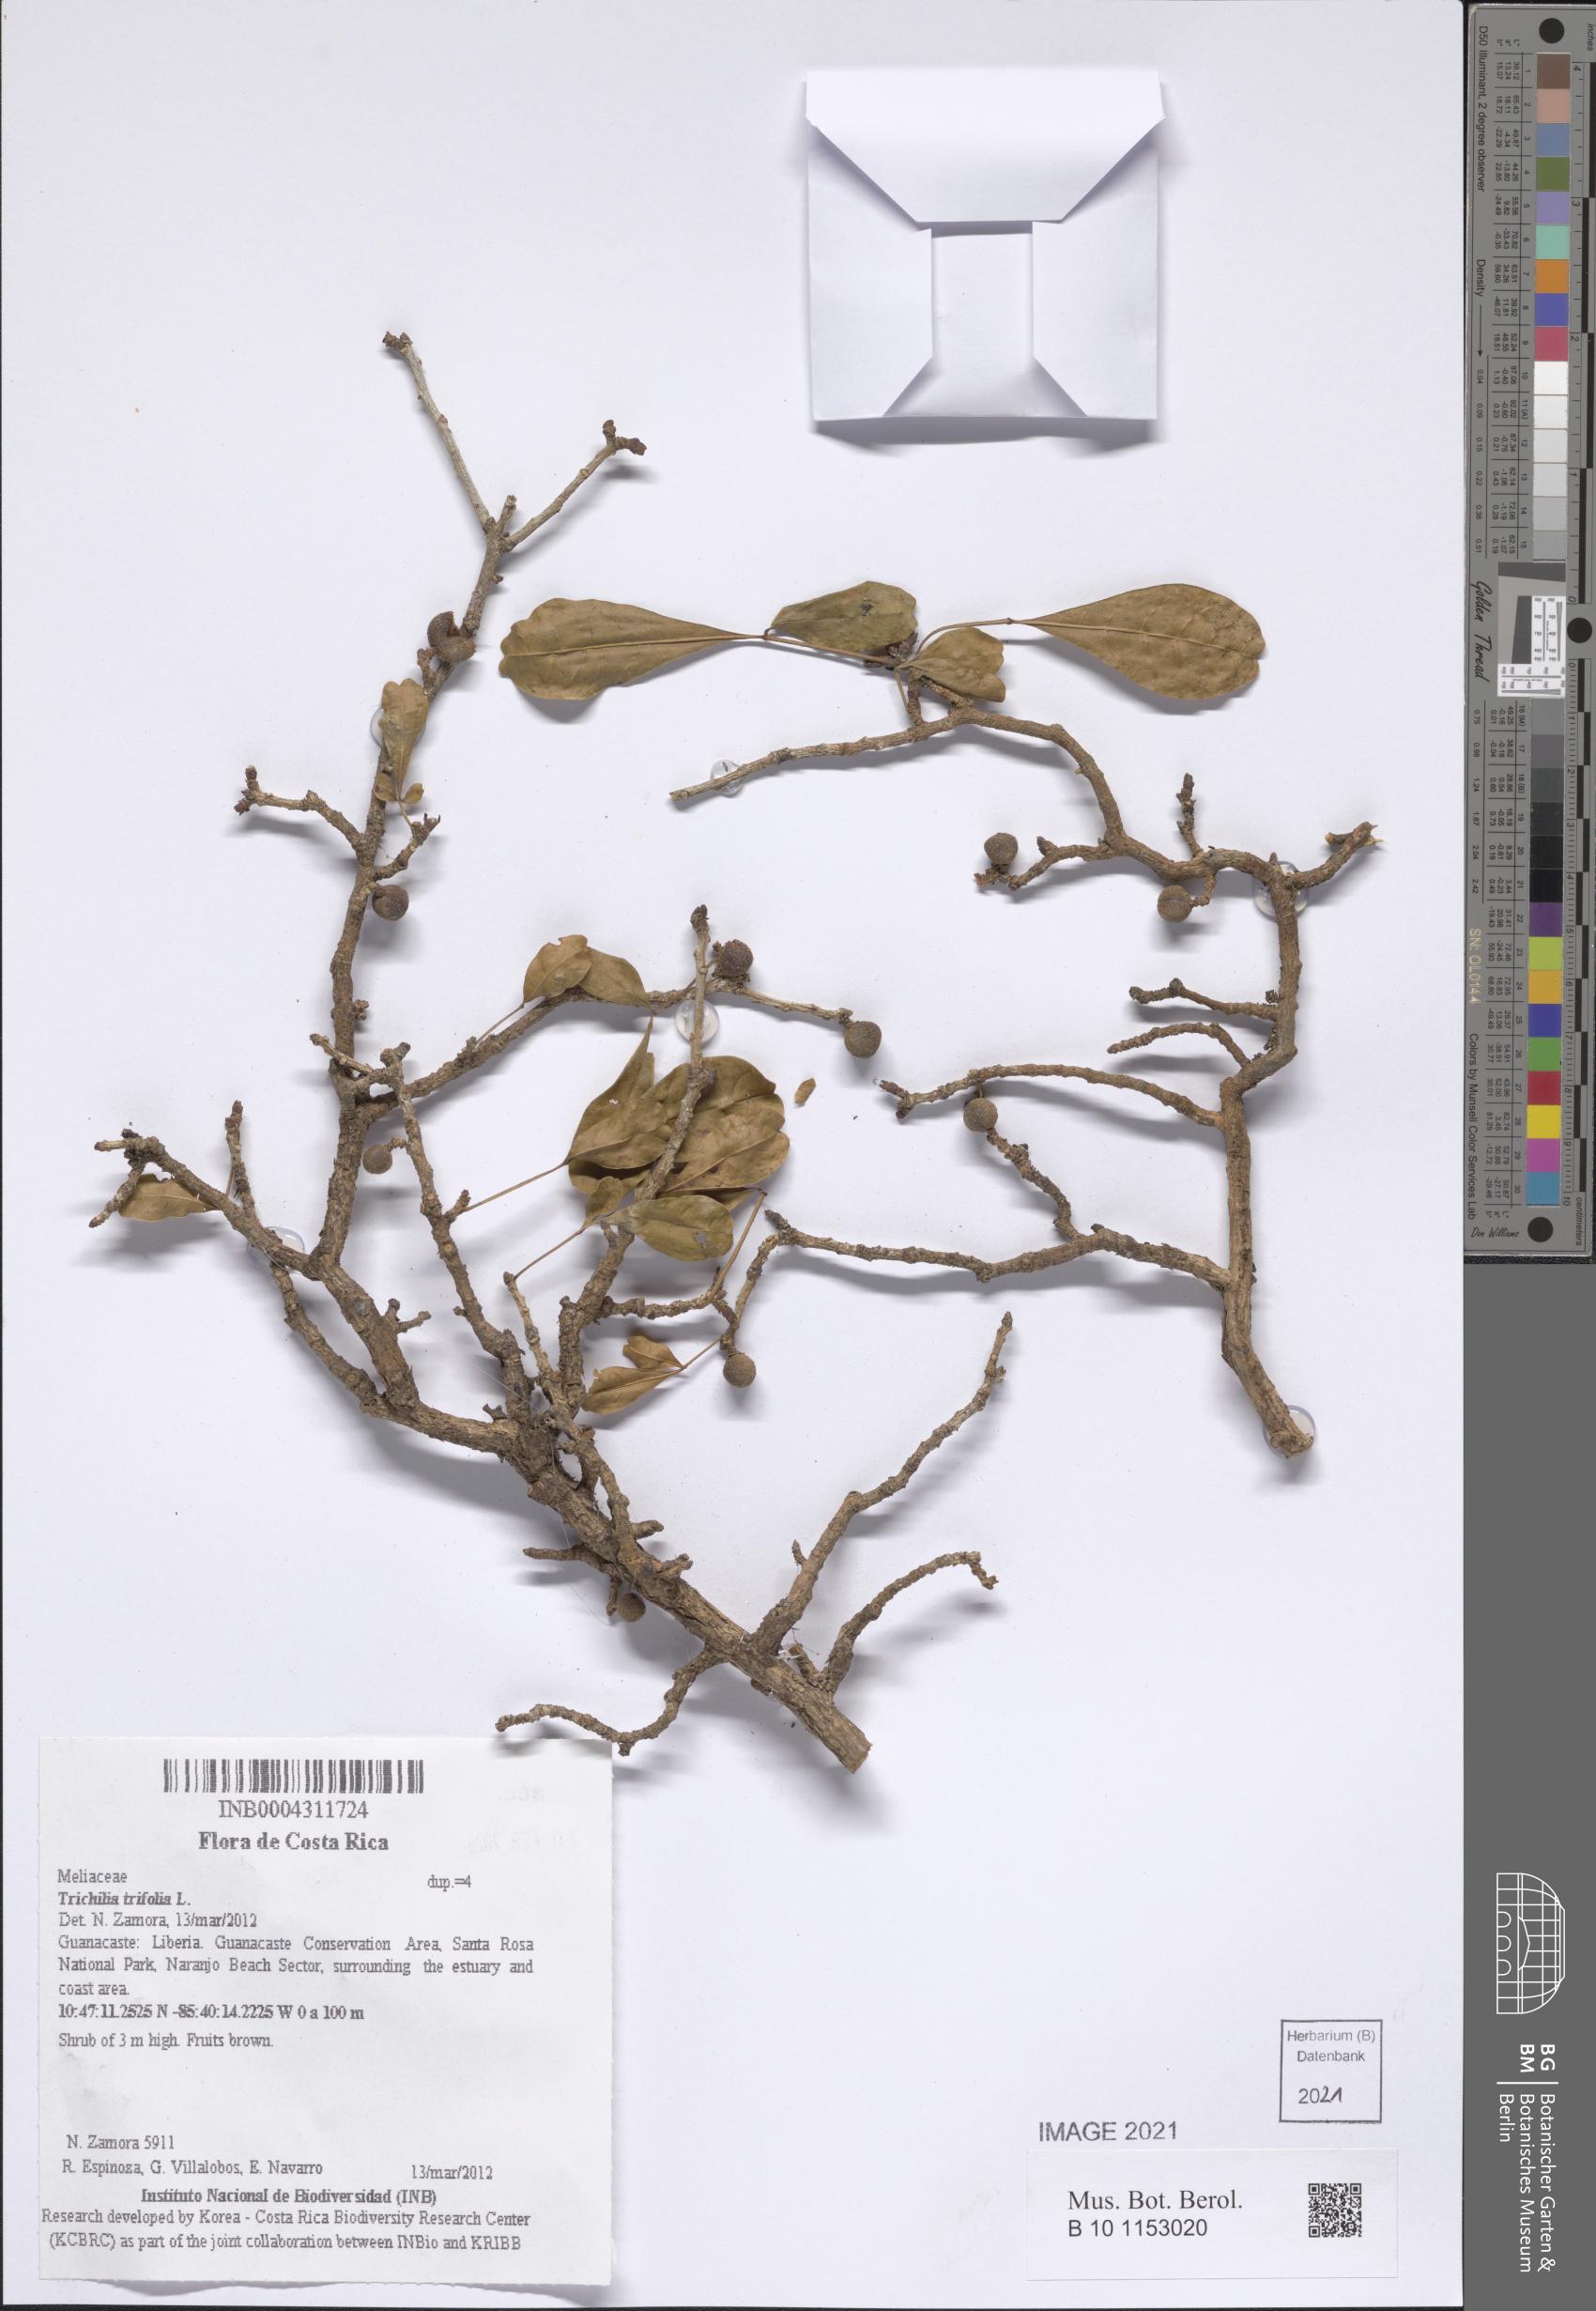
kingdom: Plantae
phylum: Tracheophyta
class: Magnoliopsida
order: Sapindales
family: Meliaceae
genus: Trichilia
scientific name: Trichilia trifolia
